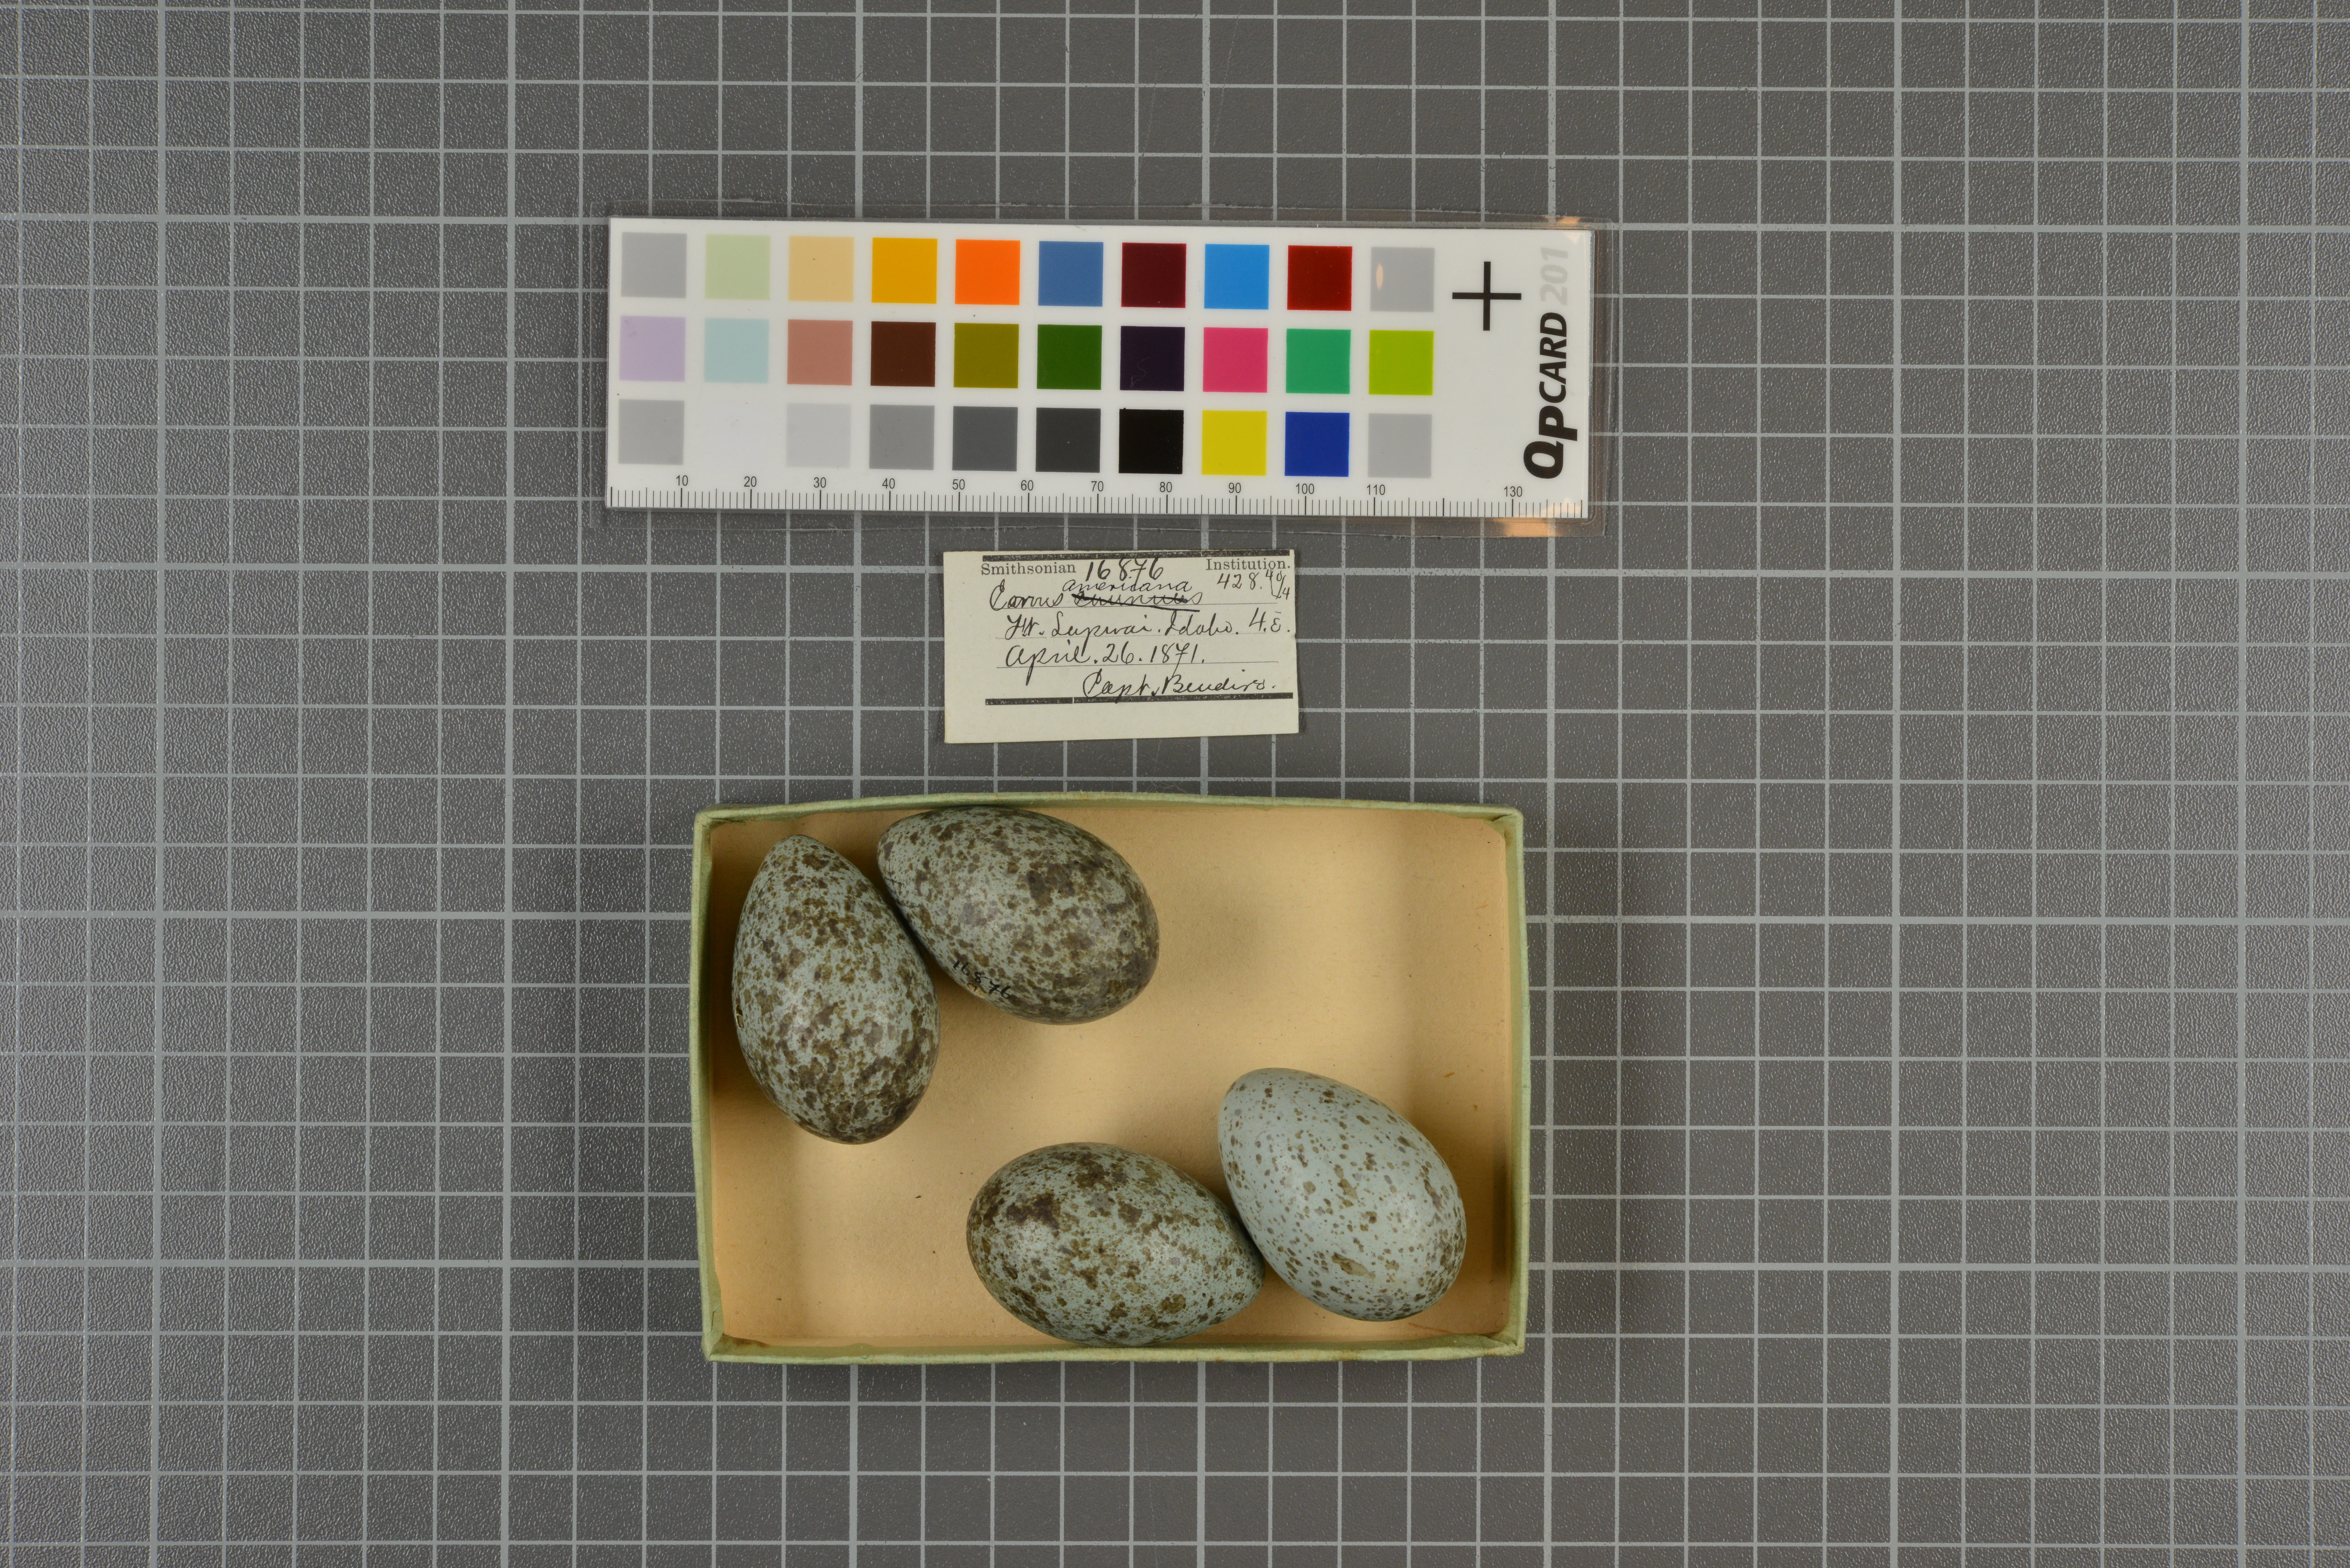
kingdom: Animalia
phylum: Chordata
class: Aves
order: Passeriformes
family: Corvidae
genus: Corvus
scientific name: Corvus brachyrhynchos
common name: American crow
